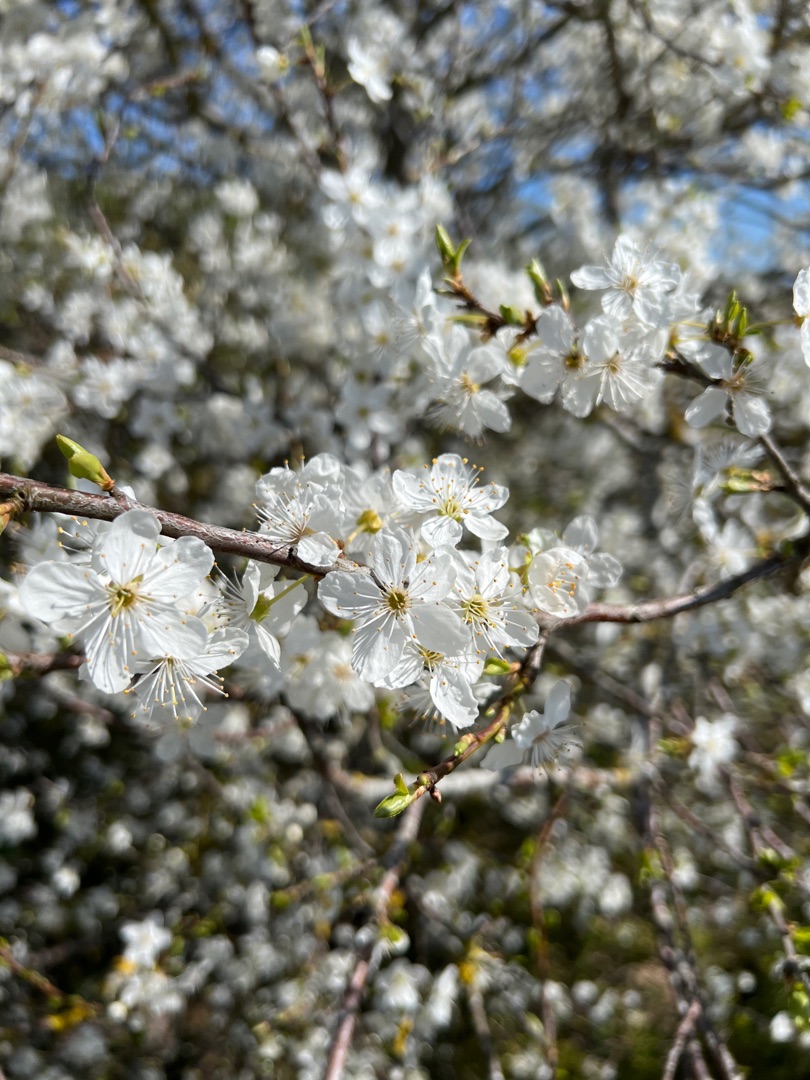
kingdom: Plantae
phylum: Tracheophyta
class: Magnoliopsida
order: Rosales
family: Rosaceae
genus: Prunus
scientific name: Prunus cerasifera
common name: Mirabel
